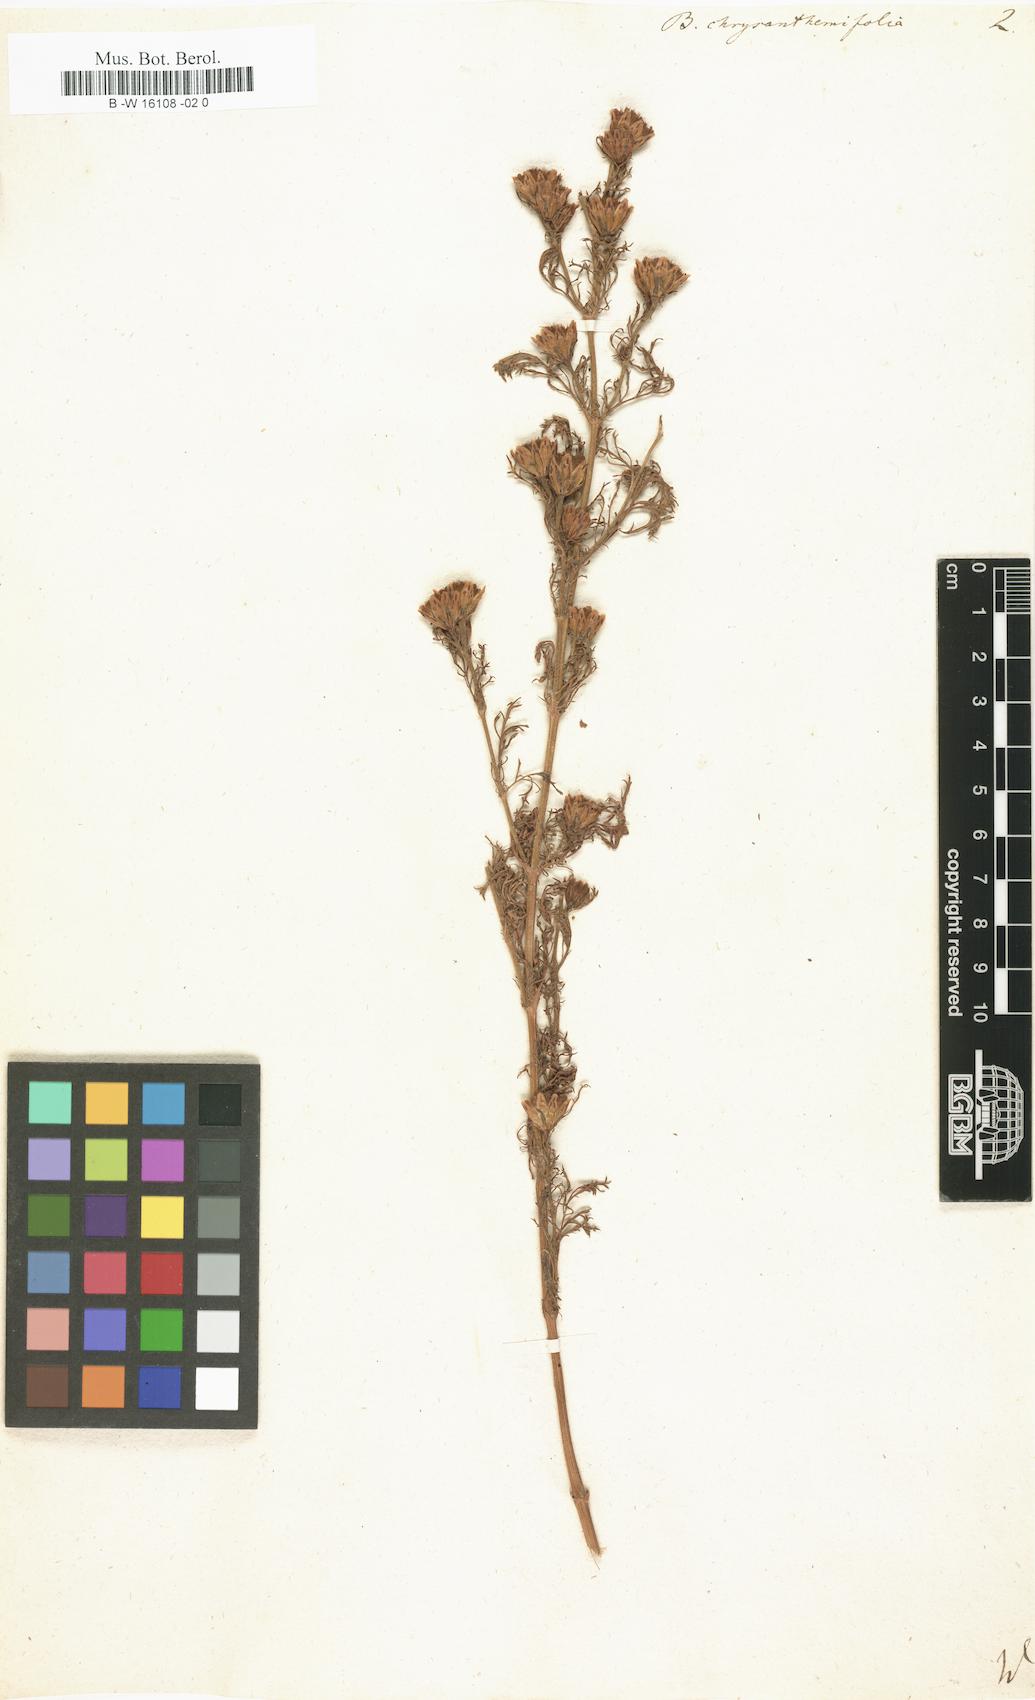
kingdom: Plantae
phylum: Tracheophyta
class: Magnoliopsida
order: Asterales
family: Asteraceae
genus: Dyssodia
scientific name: Dyssodia papposa
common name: Dogweed
